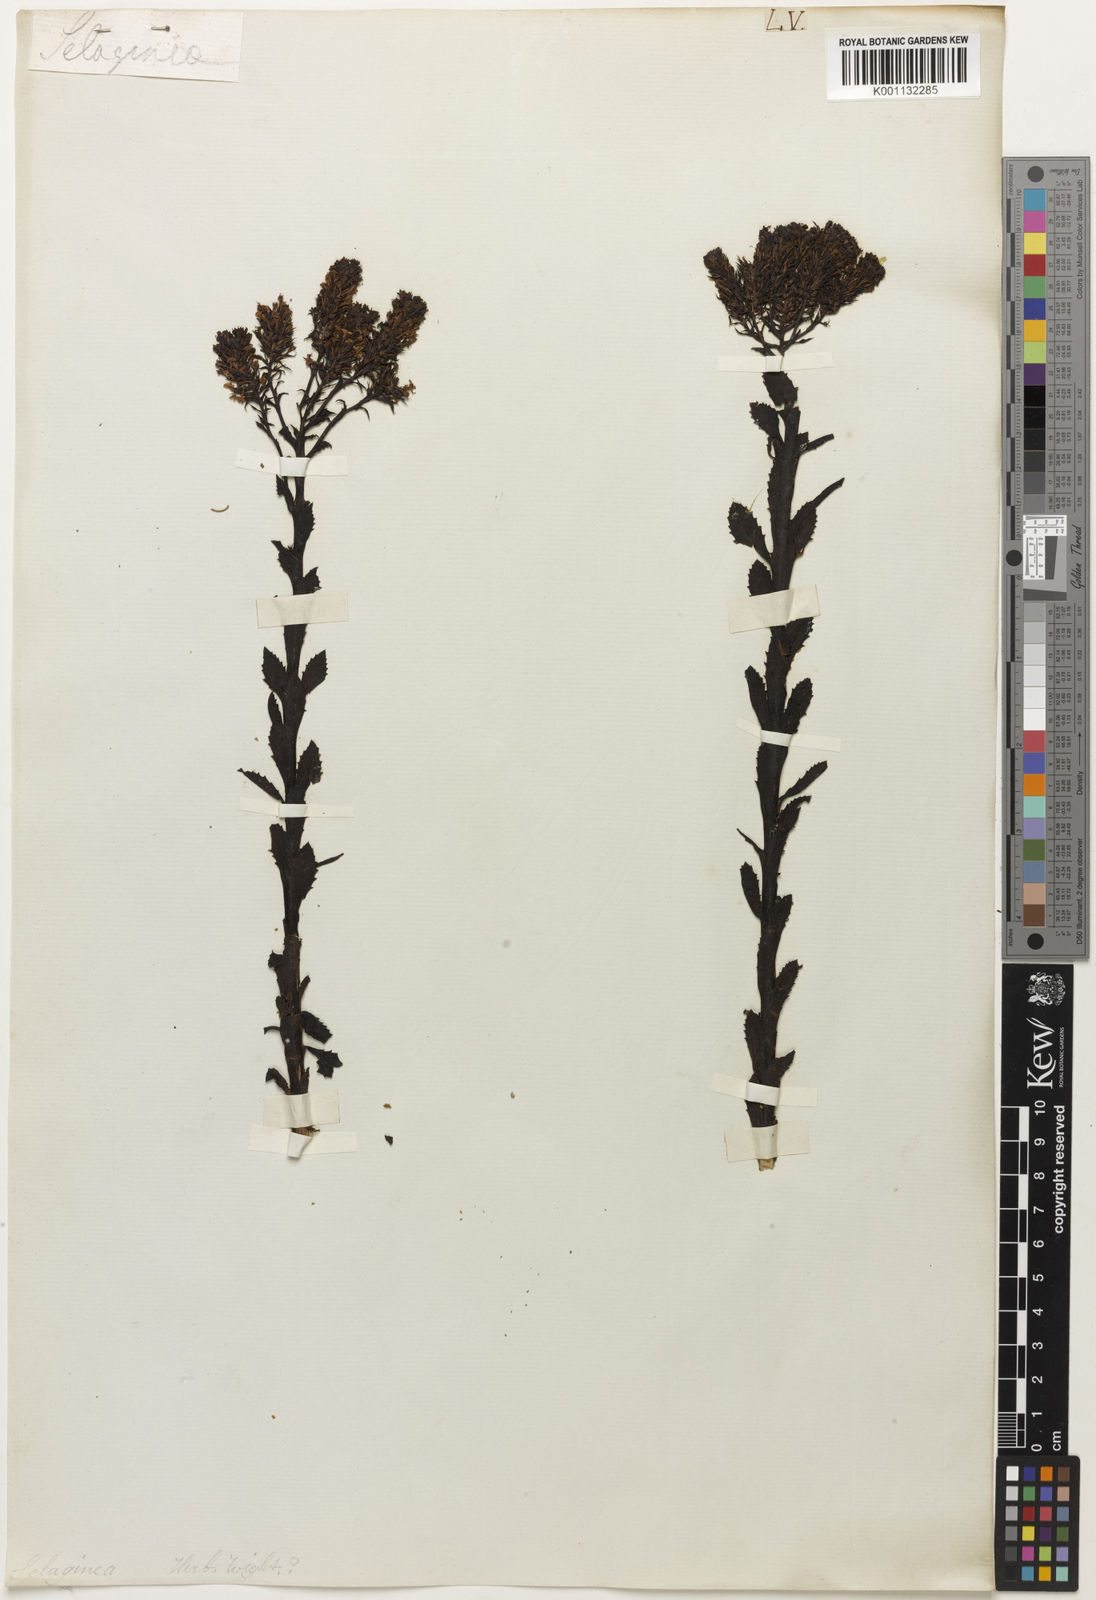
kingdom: Plantae
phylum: Tracheophyta
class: Magnoliopsida
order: Brassicales
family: Resedaceae
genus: Reseda
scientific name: Reseda
